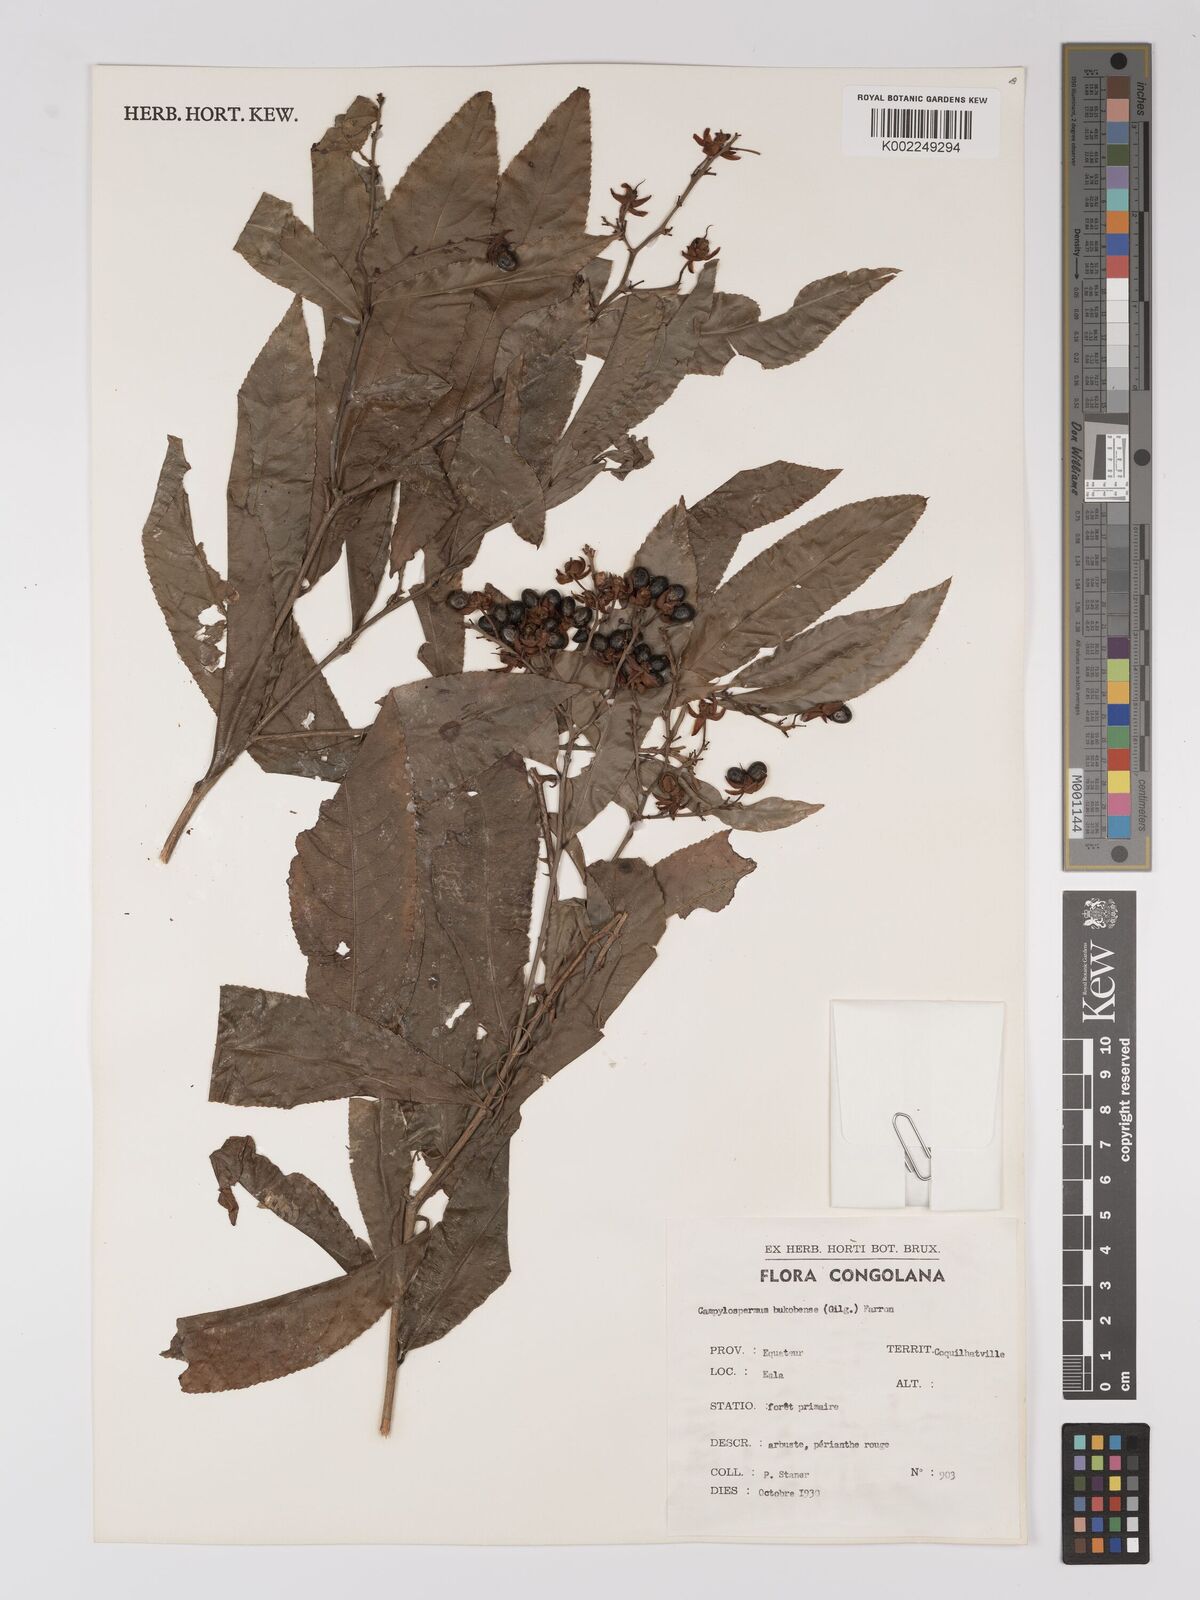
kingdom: Plantae
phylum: Tracheophyta
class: Magnoliopsida
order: Malpighiales
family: Ochnaceae
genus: Campylospermum
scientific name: Campylospermum likimiense
